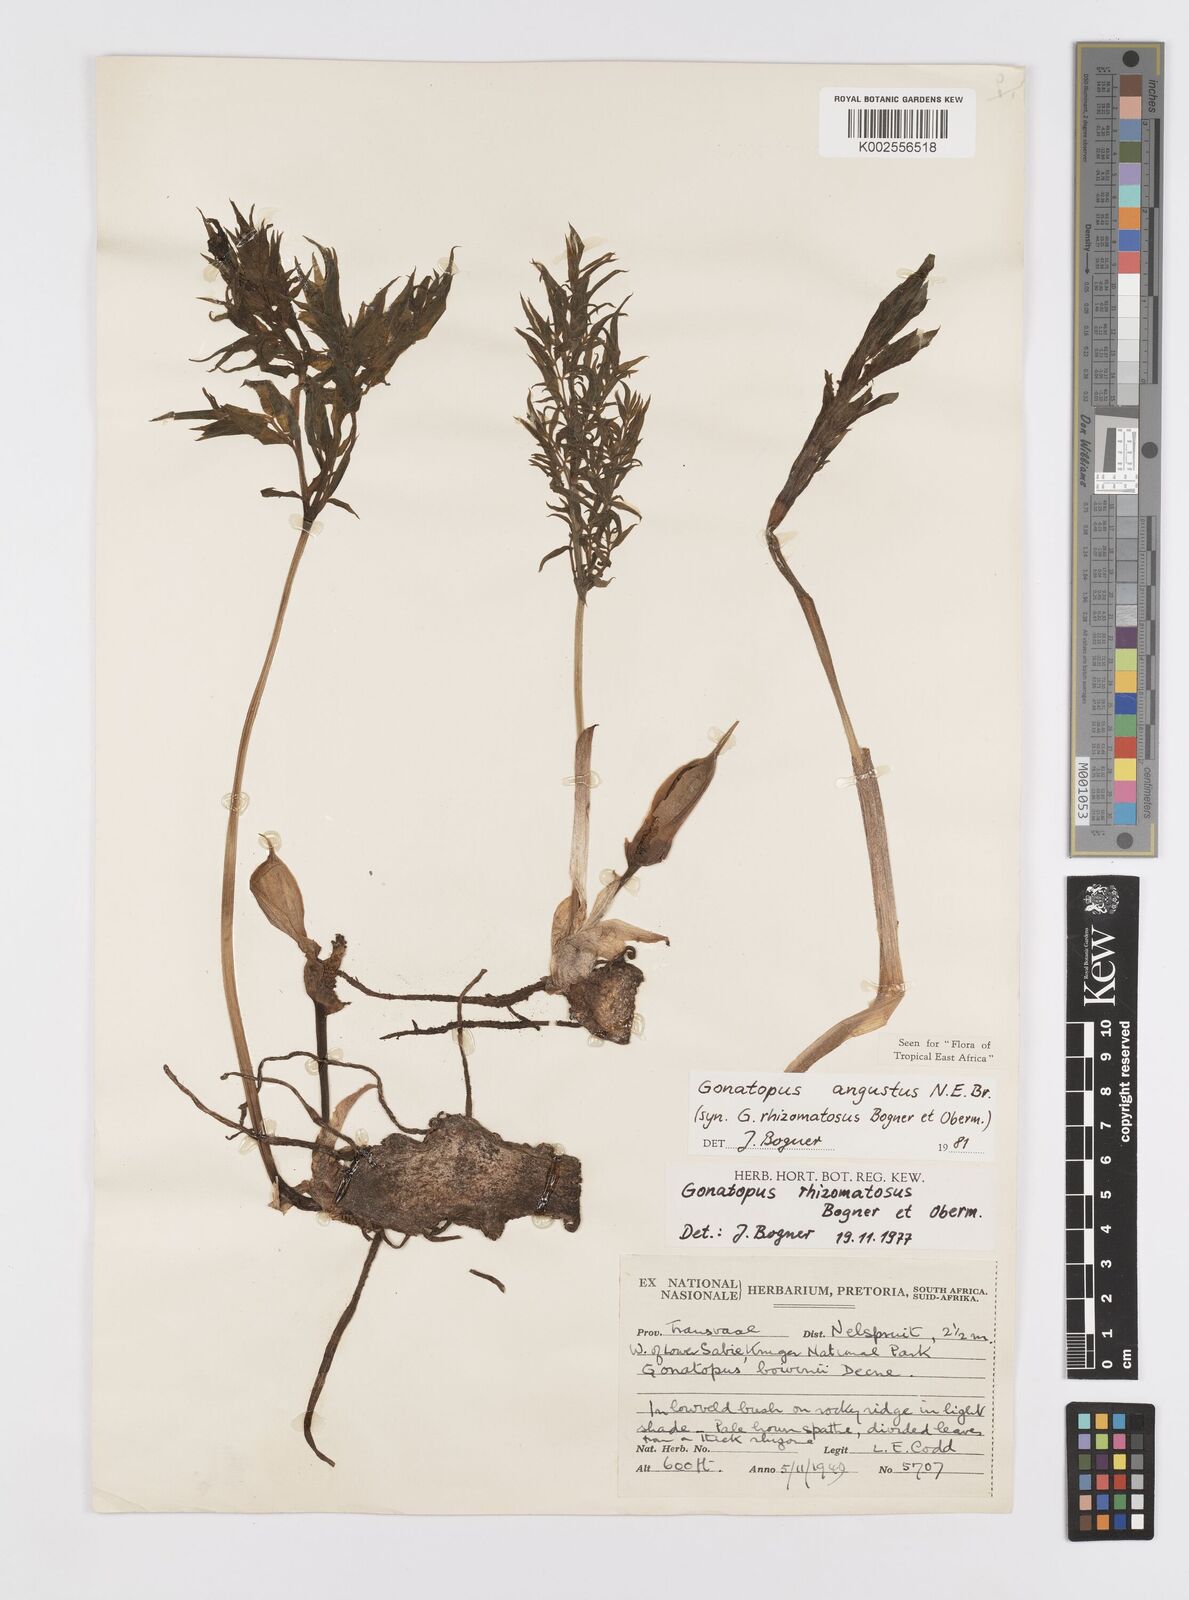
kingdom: Plantae
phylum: Tracheophyta
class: Liliopsida
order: Alismatales
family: Araceae
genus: Gonatopus
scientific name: Gonatopus angustus
